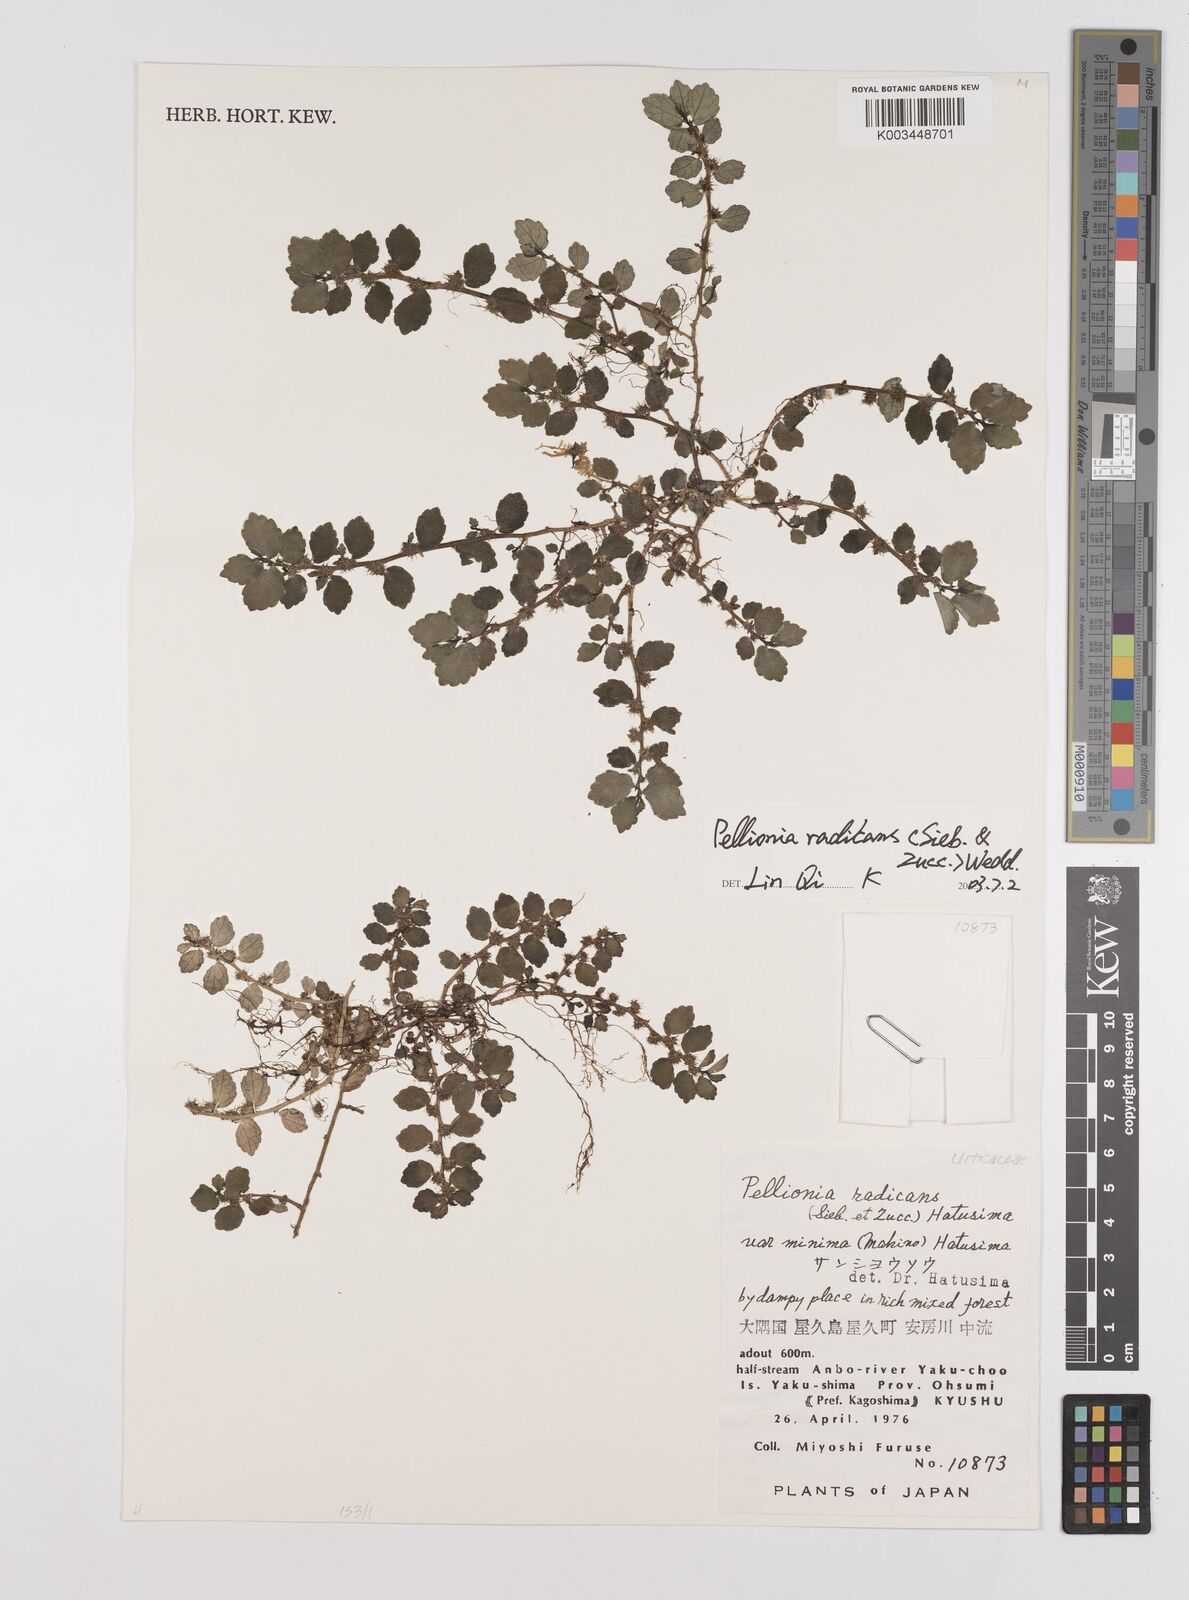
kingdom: Plantae
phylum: Tracheophyta
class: Magnoliopsida
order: Rosales
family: Urticaceae
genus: Elatostema
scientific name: Elatostema radicans
